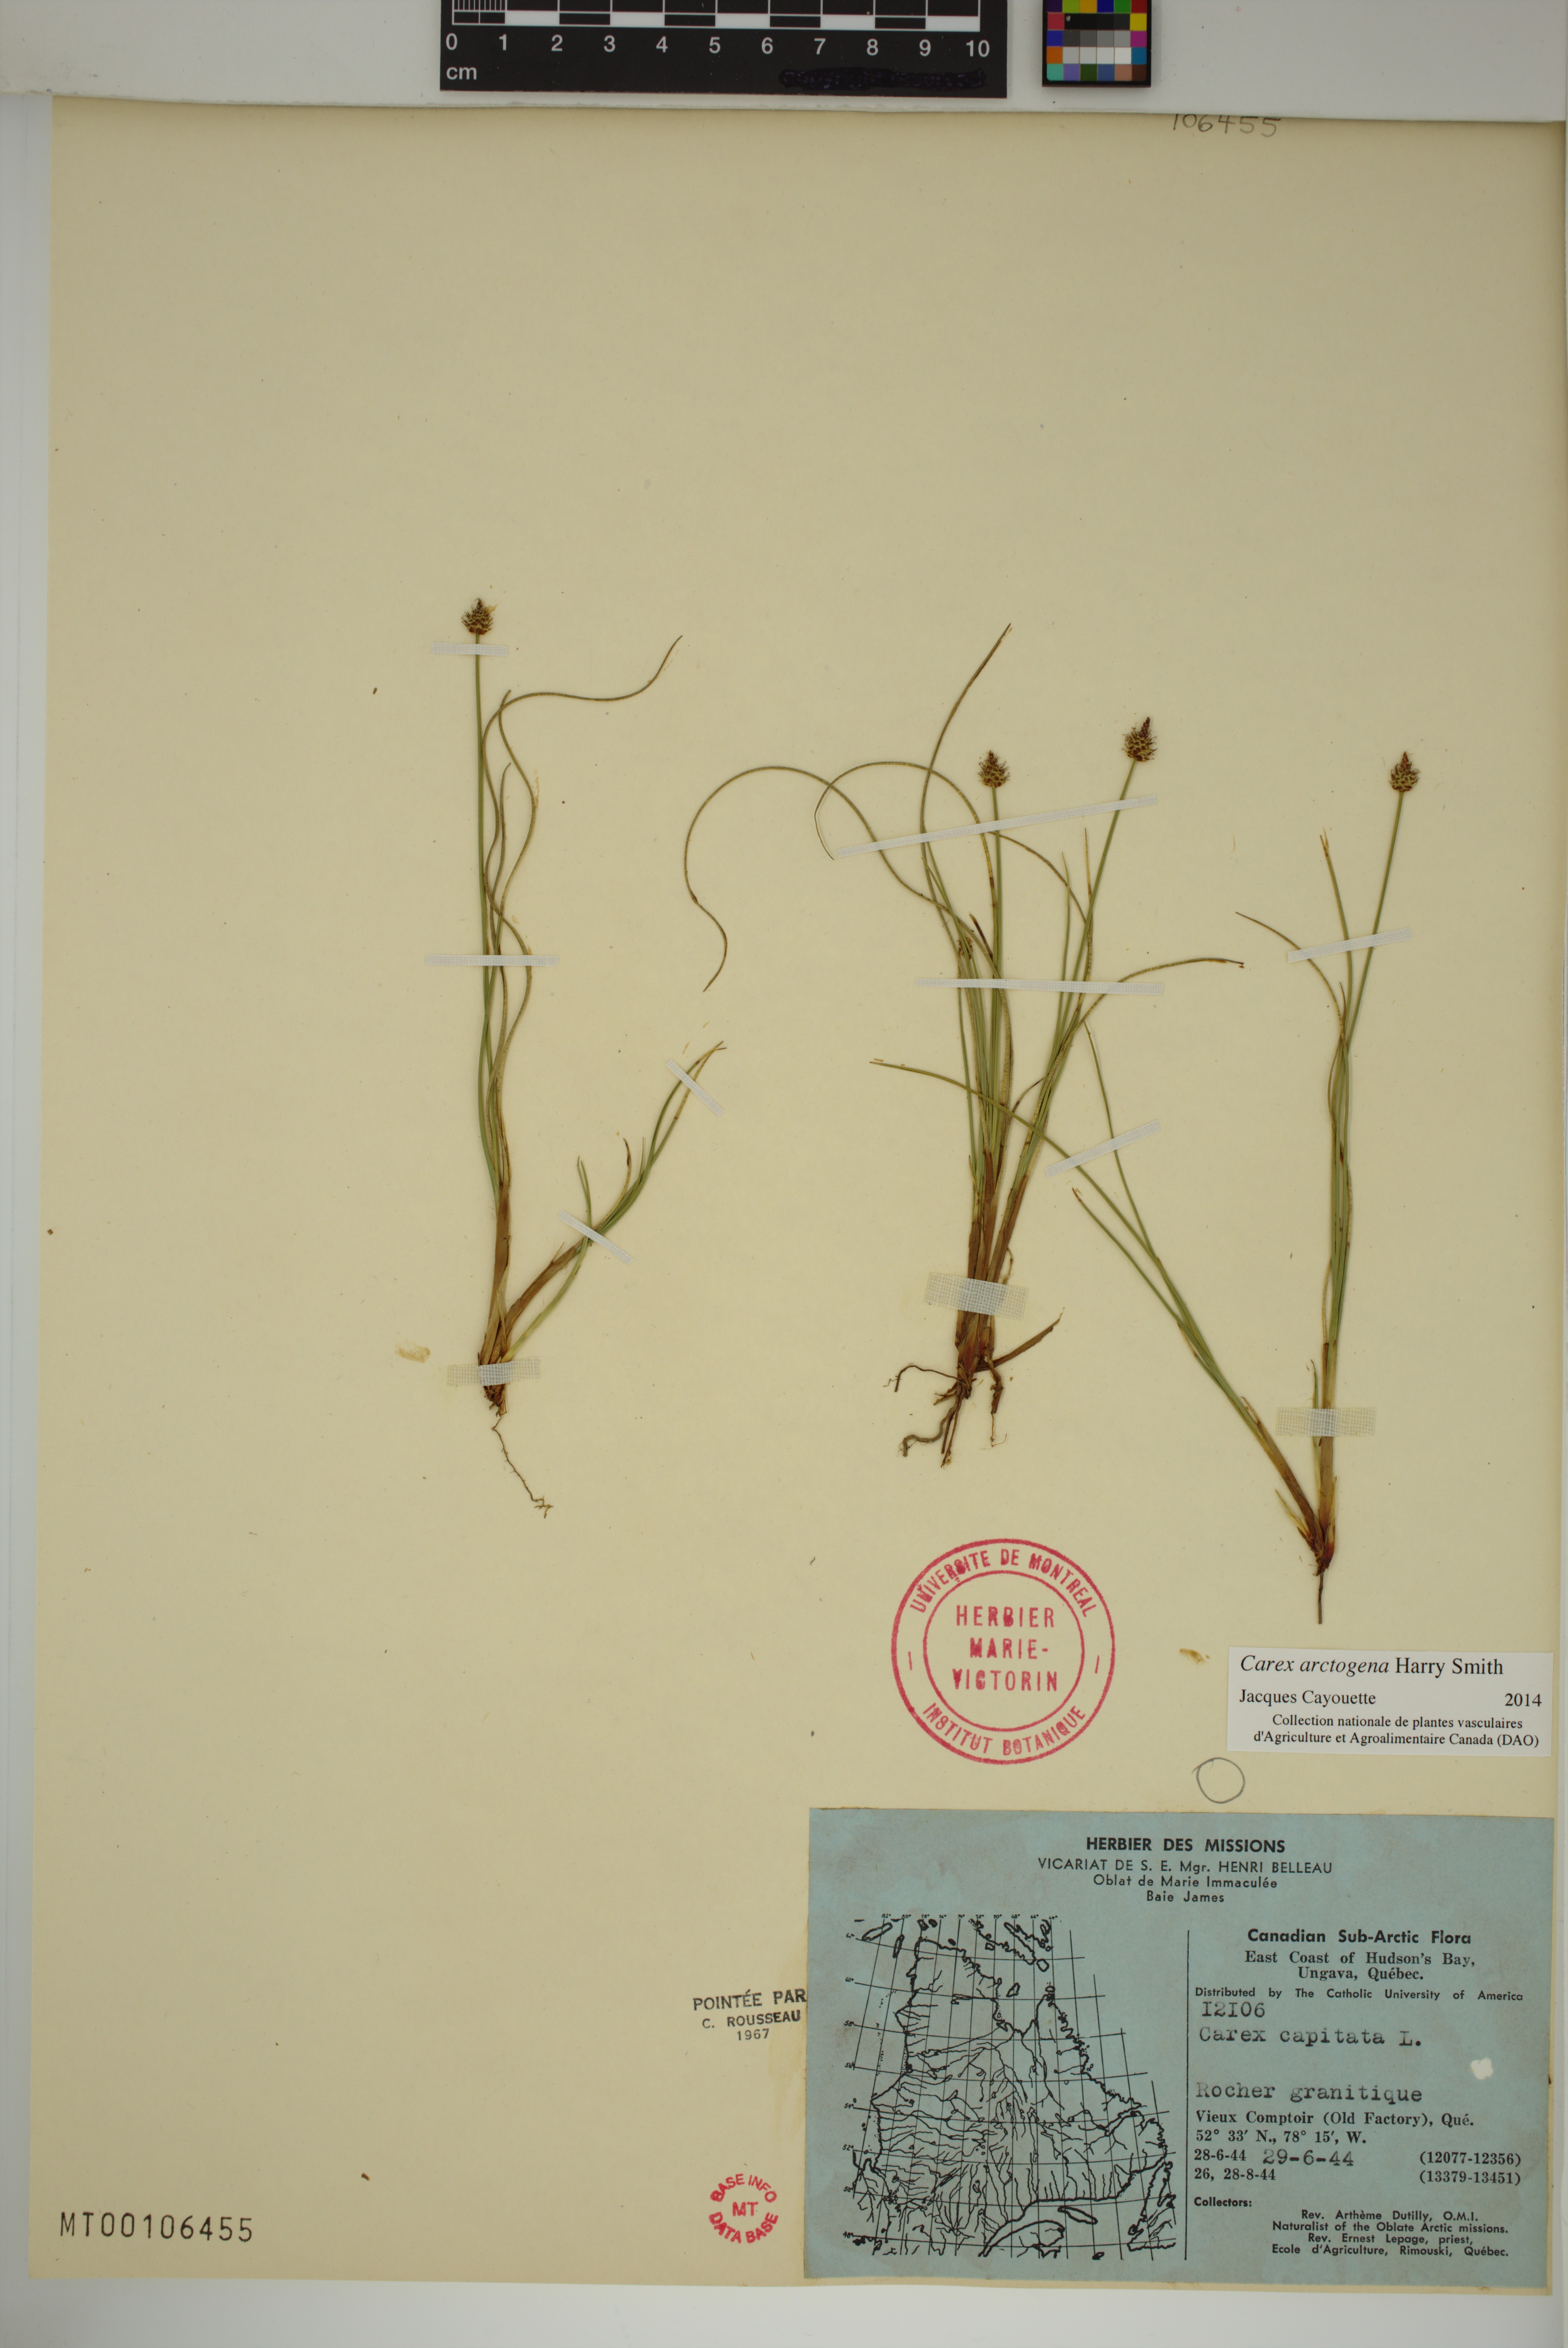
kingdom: Plantae
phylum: Tracheophyta
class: Liliopsida
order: Poales
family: Cyperaceae
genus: Carex
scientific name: Carex arctogena
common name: Black sedge
